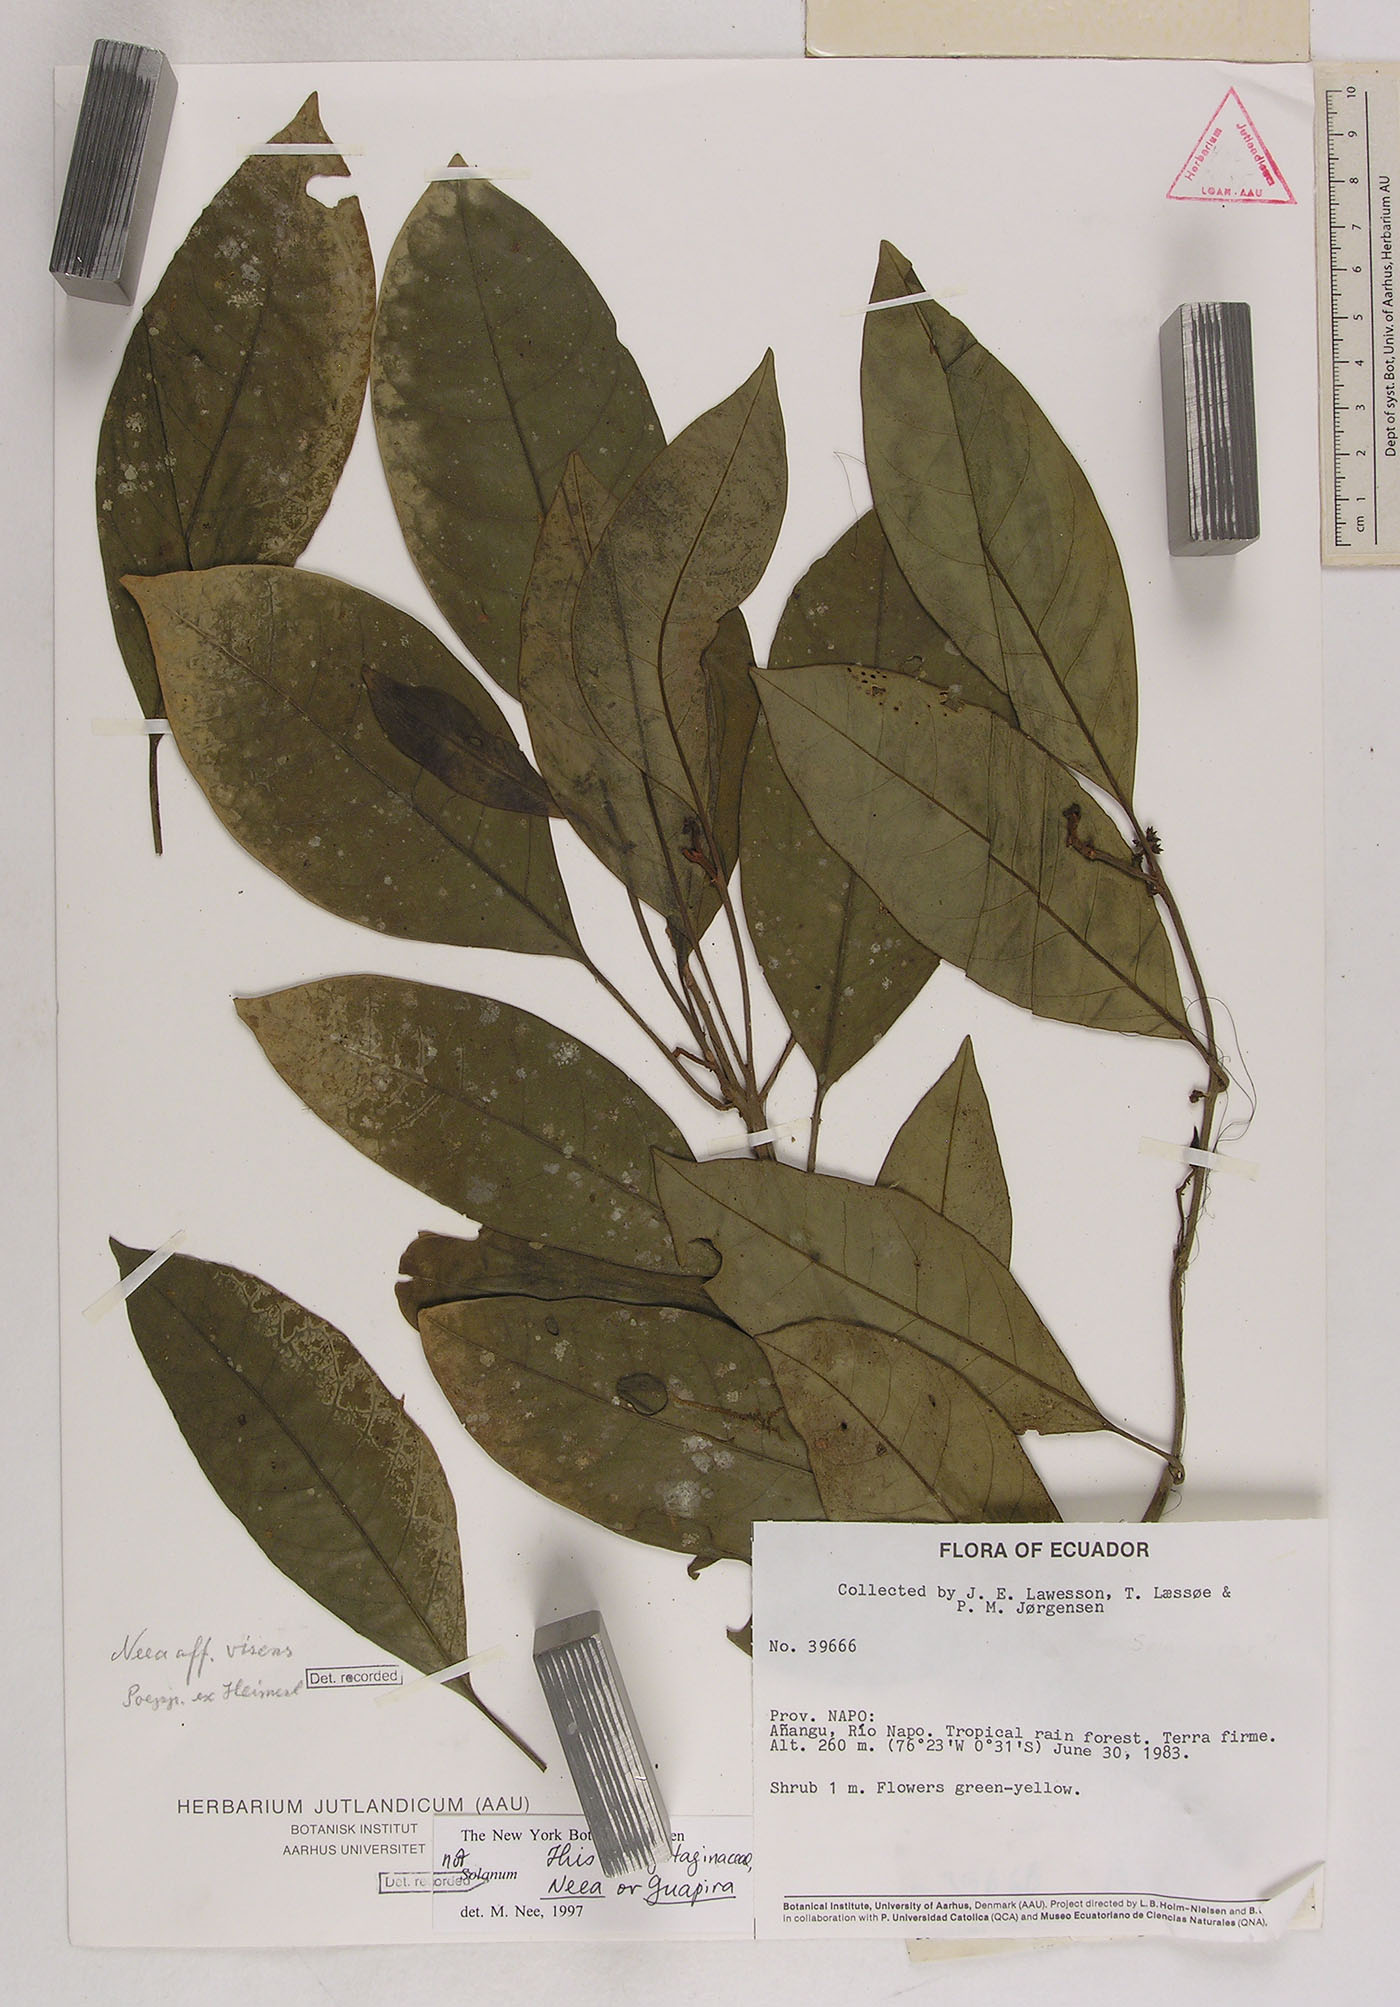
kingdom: Plantae
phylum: Tracheophyta
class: Magnoliopsida
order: Caryophyllales
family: Nyctaginaceae
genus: Neea
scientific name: Neea virens
